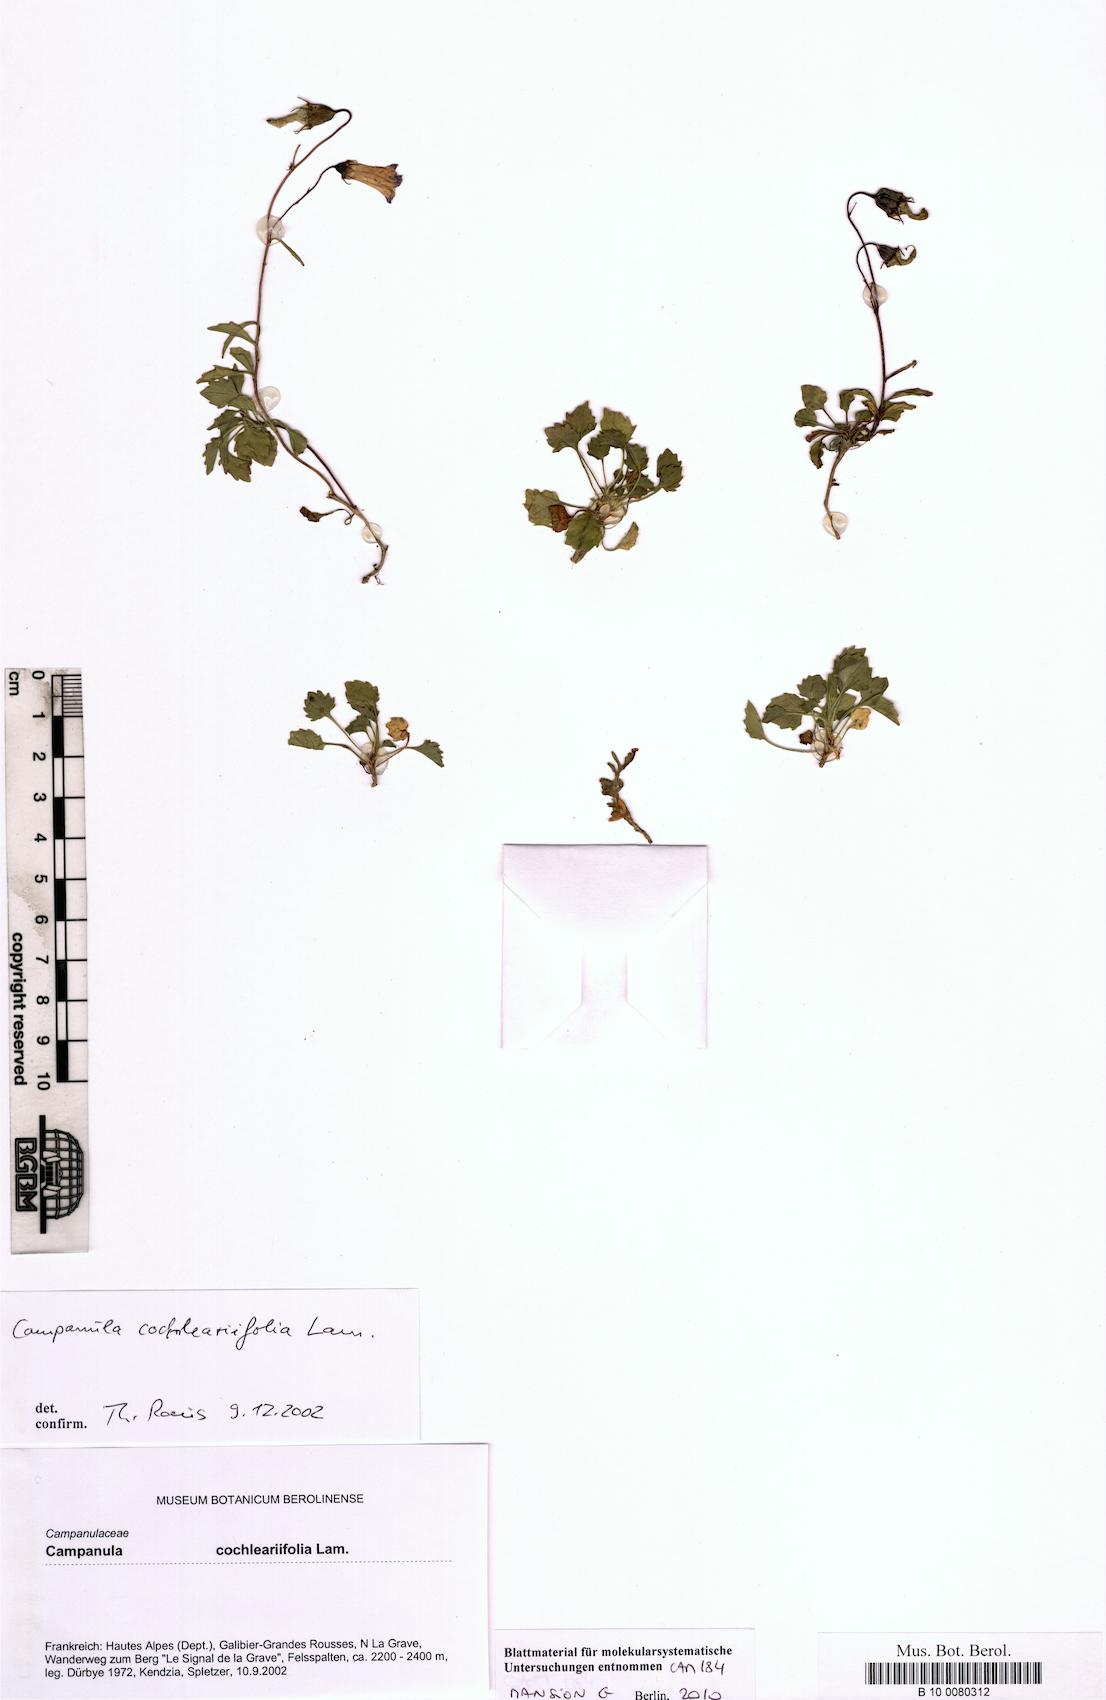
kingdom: Plantae
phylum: Tracheophyta
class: Magnoliopsida
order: Asterales
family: Campanulaceae
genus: Campanula
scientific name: Campanula cochleariifolia
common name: Fairies'-thimbles
